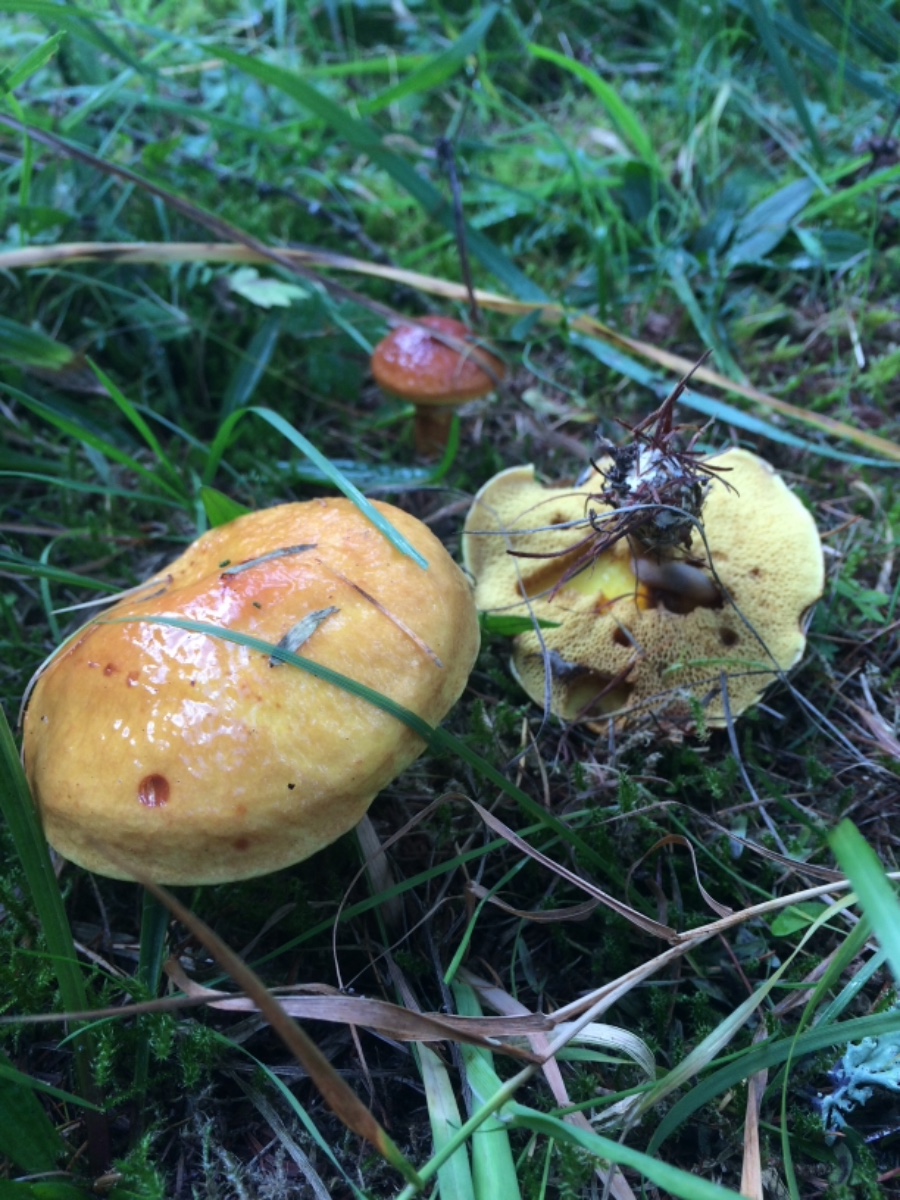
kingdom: Fungi
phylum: Basidiomycota
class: Agaricomycetes
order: Boletales
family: Suillaceae
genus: Suillus
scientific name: Suillus grevillei
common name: lærke-slimrørhat
